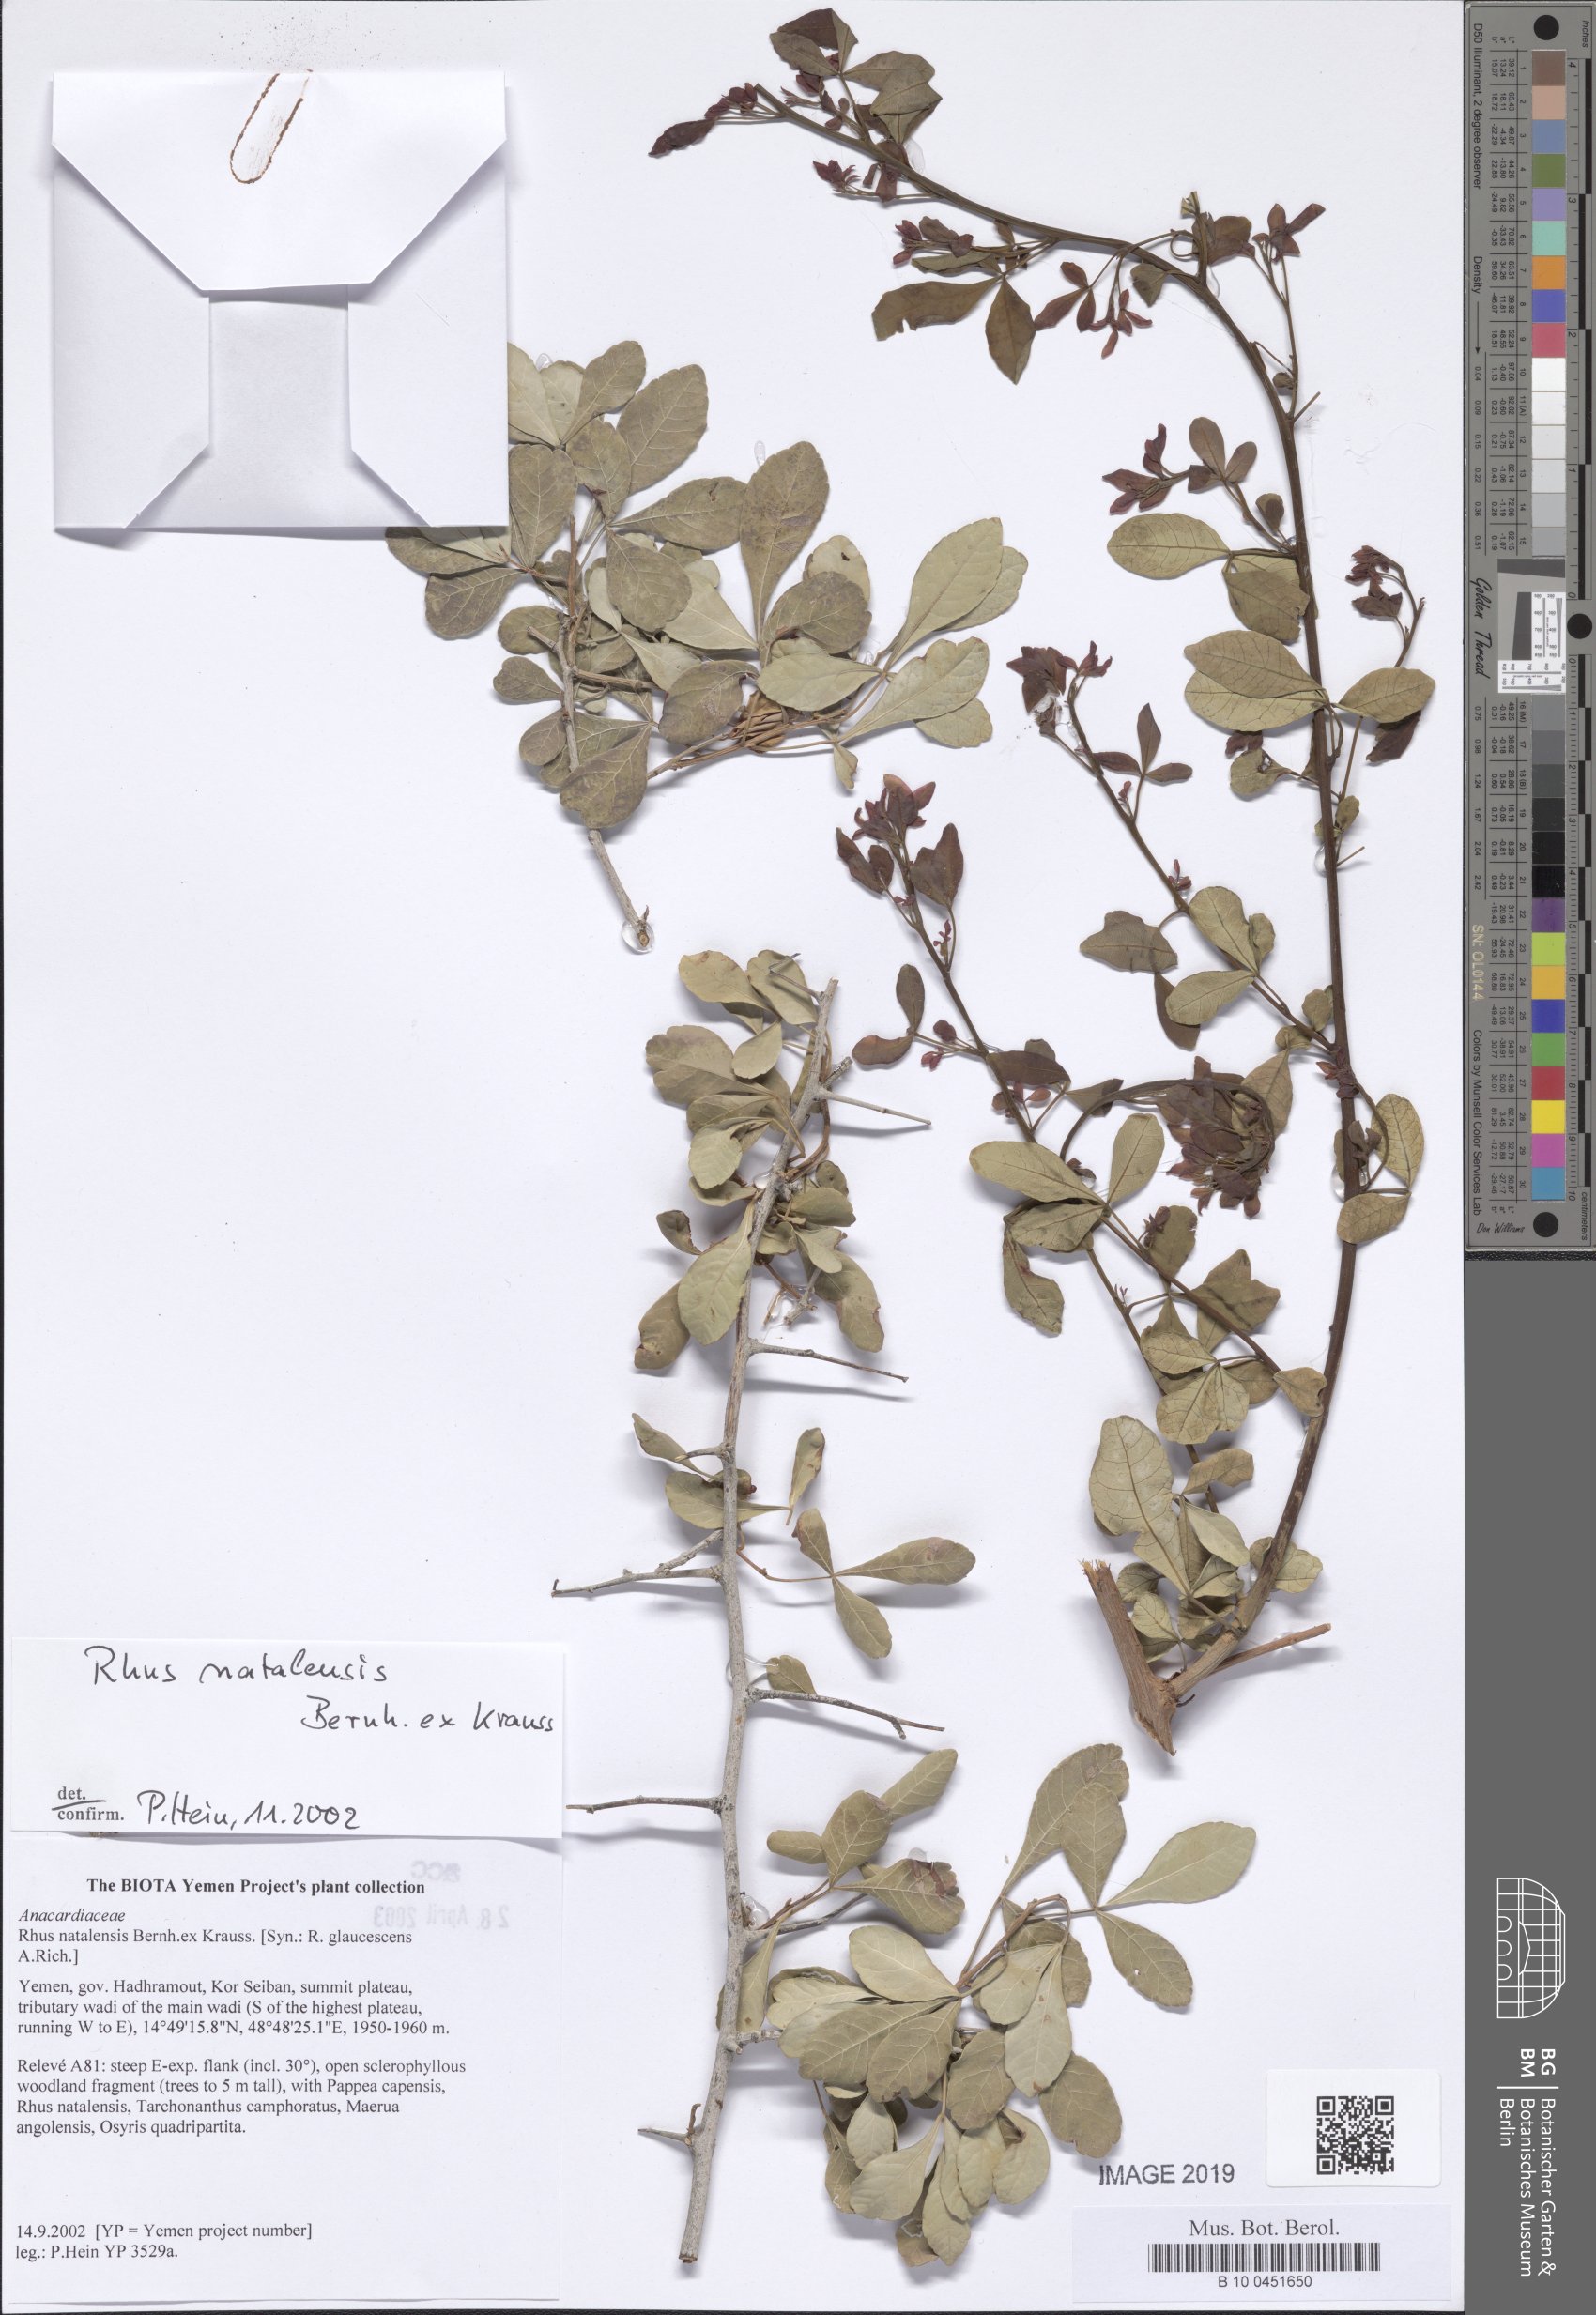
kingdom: Plantae
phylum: Tracheophyta
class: Magnoliopsida
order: Sapindales
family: Anacardiaceae
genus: Searsia
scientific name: Searsia natalensis
